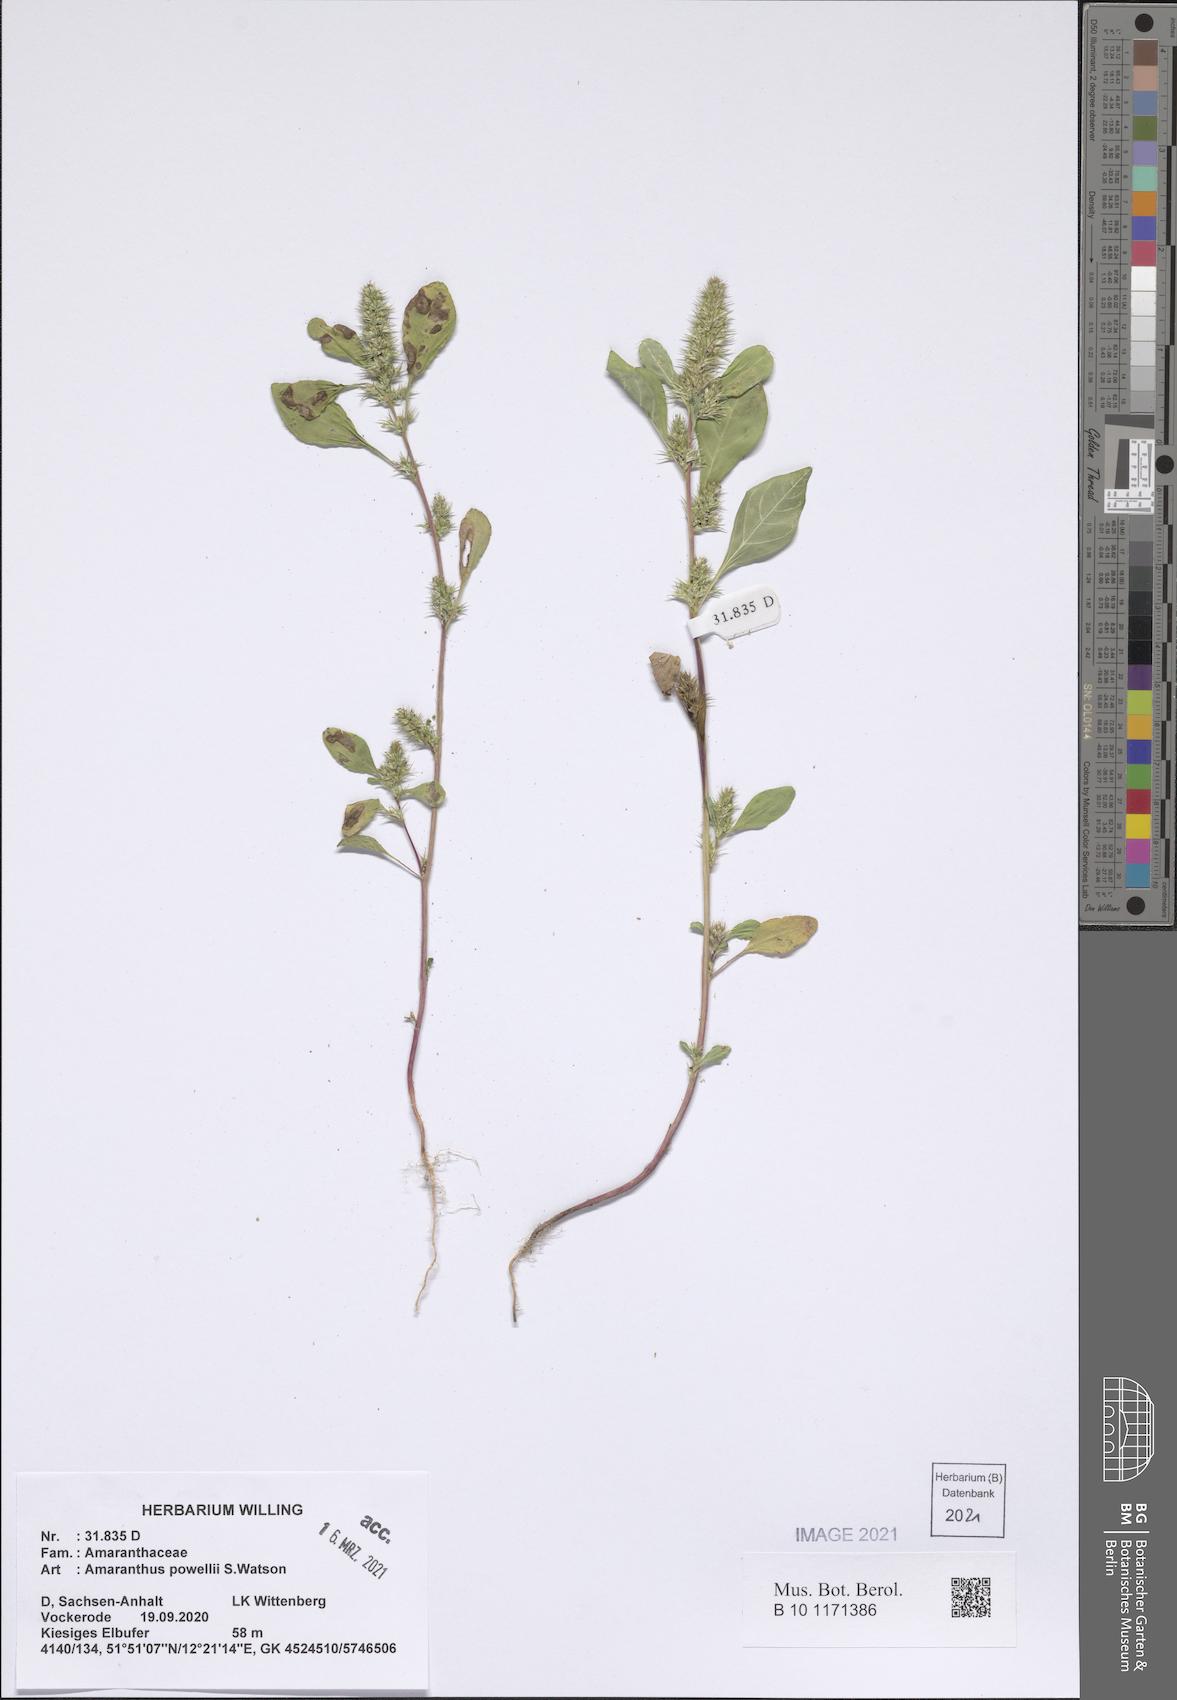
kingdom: Plantae
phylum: Tracheophyta
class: Magnoliopsida
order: Caryophyllales
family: Amaranthaceae
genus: Amaranthus
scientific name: Amaranthus powellii
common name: Powell's amaranth
